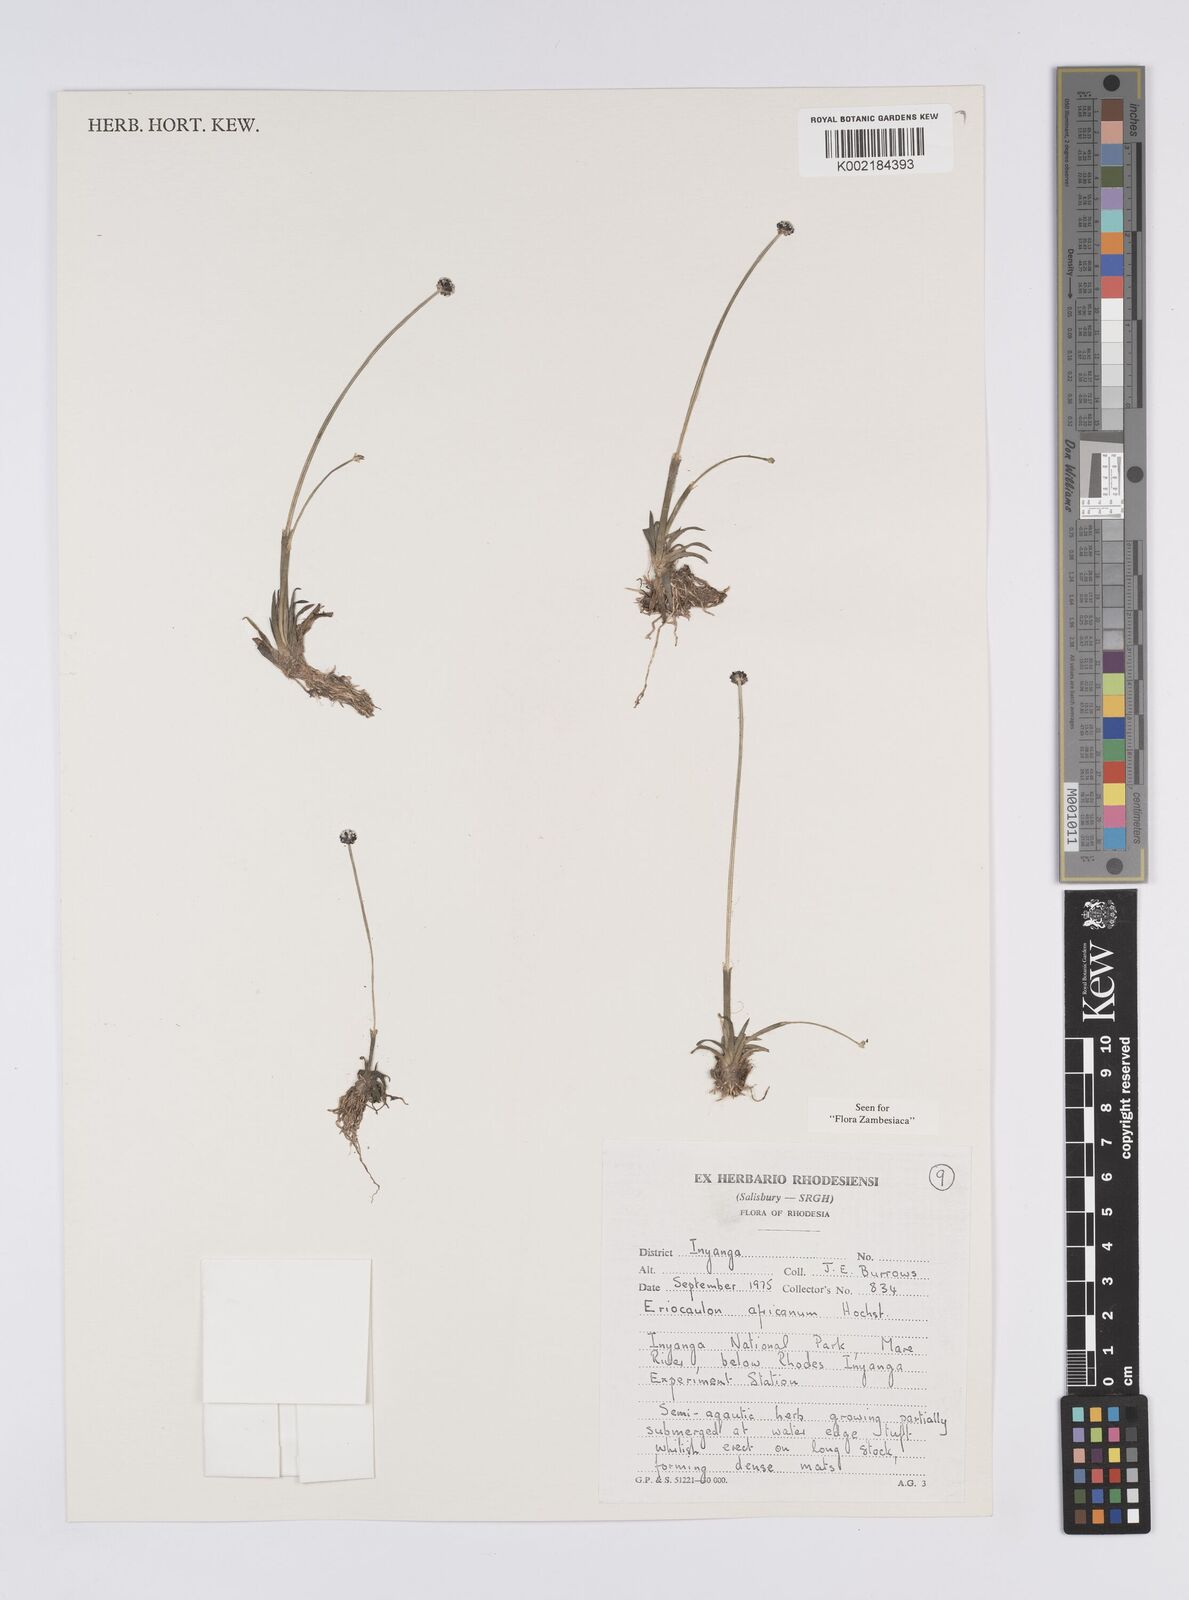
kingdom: Plantae
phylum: Tracheophyta
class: Liliopsida
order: Poales
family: Eriocaulaceae
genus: Eriocaulon
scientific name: Eriocaulon africanum
